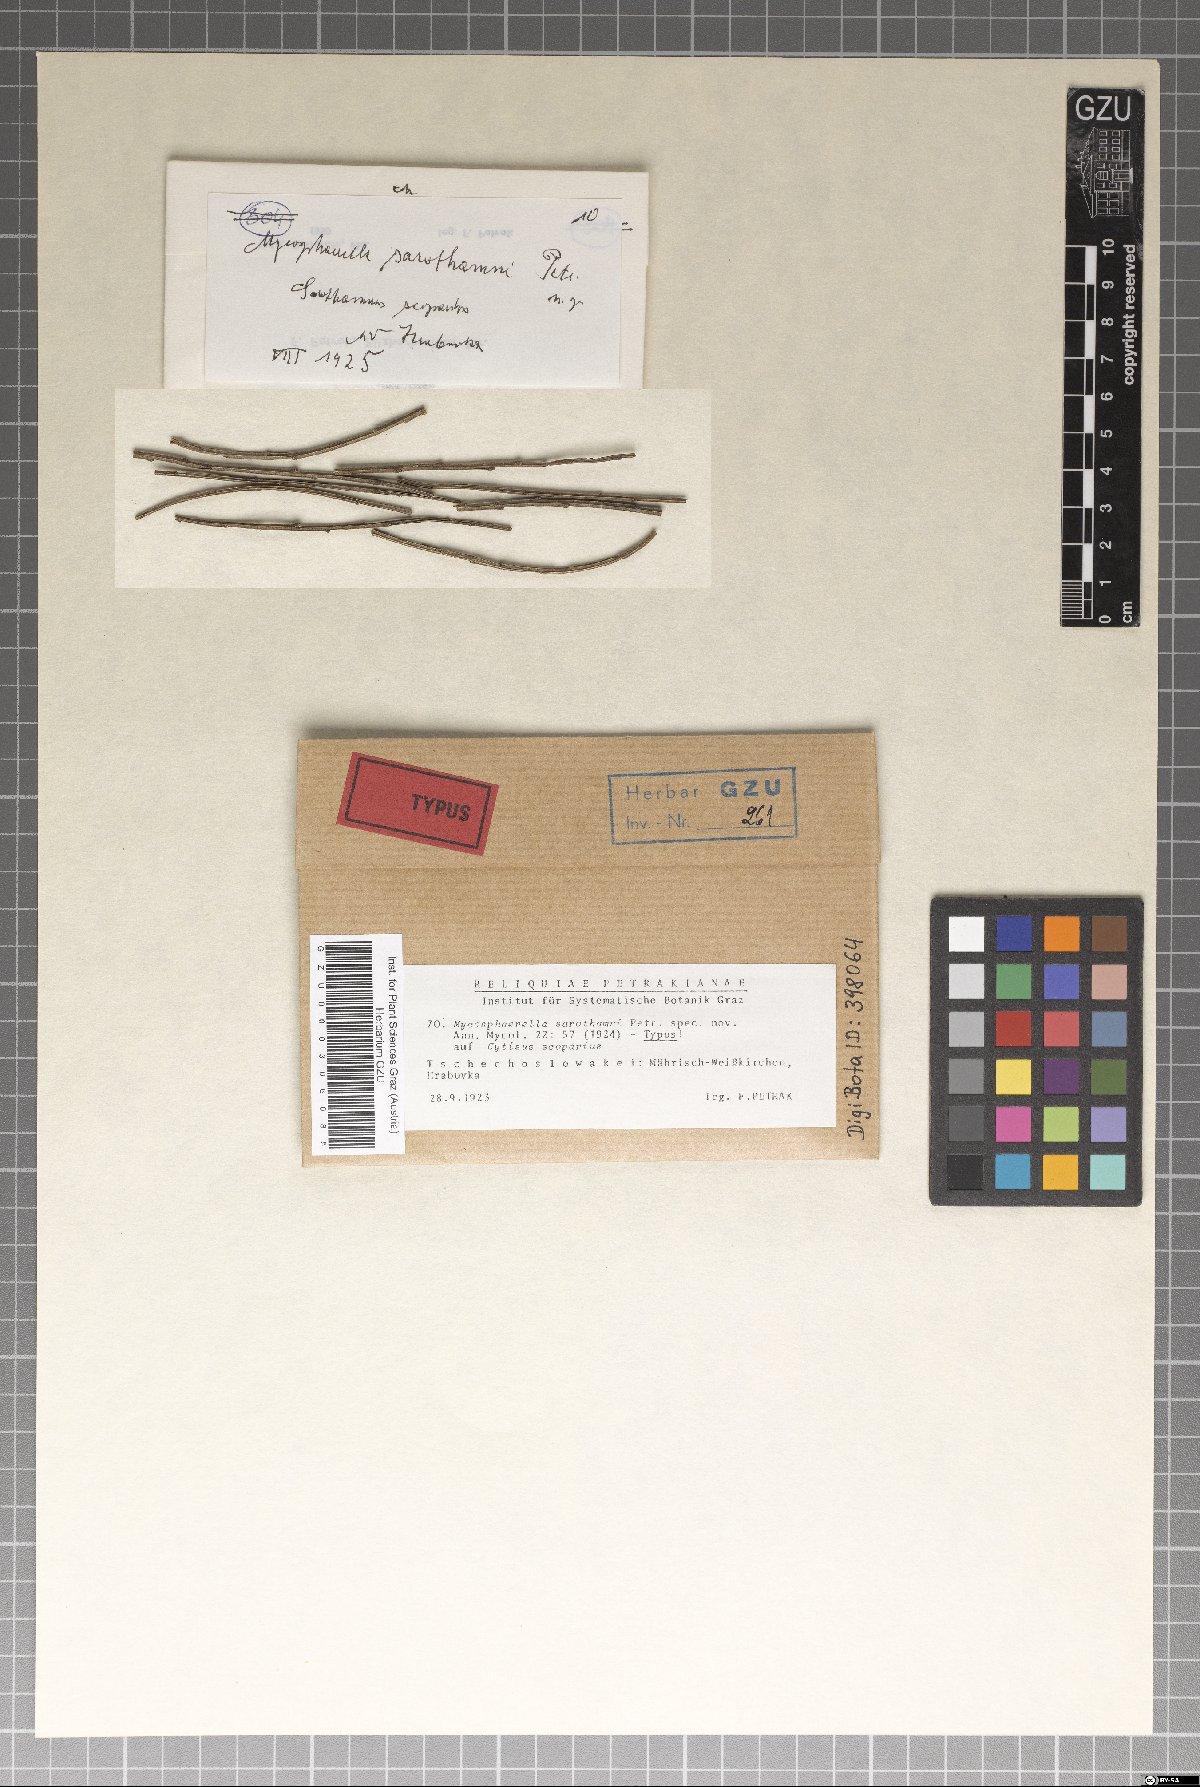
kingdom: Fungi
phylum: Ascomycota
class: Dothideomycetes
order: Mycosphaerellales
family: Mycosphaerellaceae
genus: Mycosphaerella
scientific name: Mycosphaerella sarothamni
